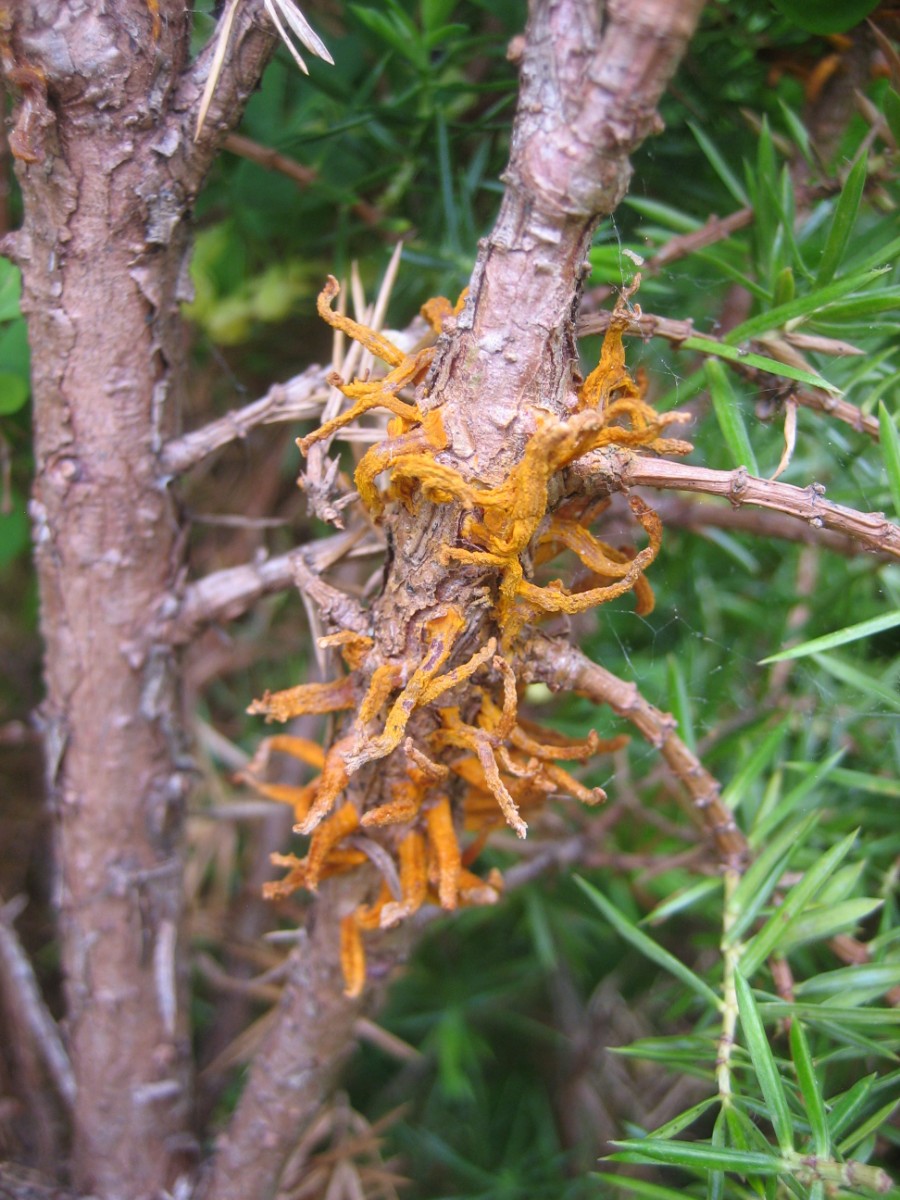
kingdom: Fungi
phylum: Basidiomycota
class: Pucciniomycetes
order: Pucciniales
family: Gymnosporangiaceae
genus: Gymnosporangium
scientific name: Gymnosporangium clavariiforme
